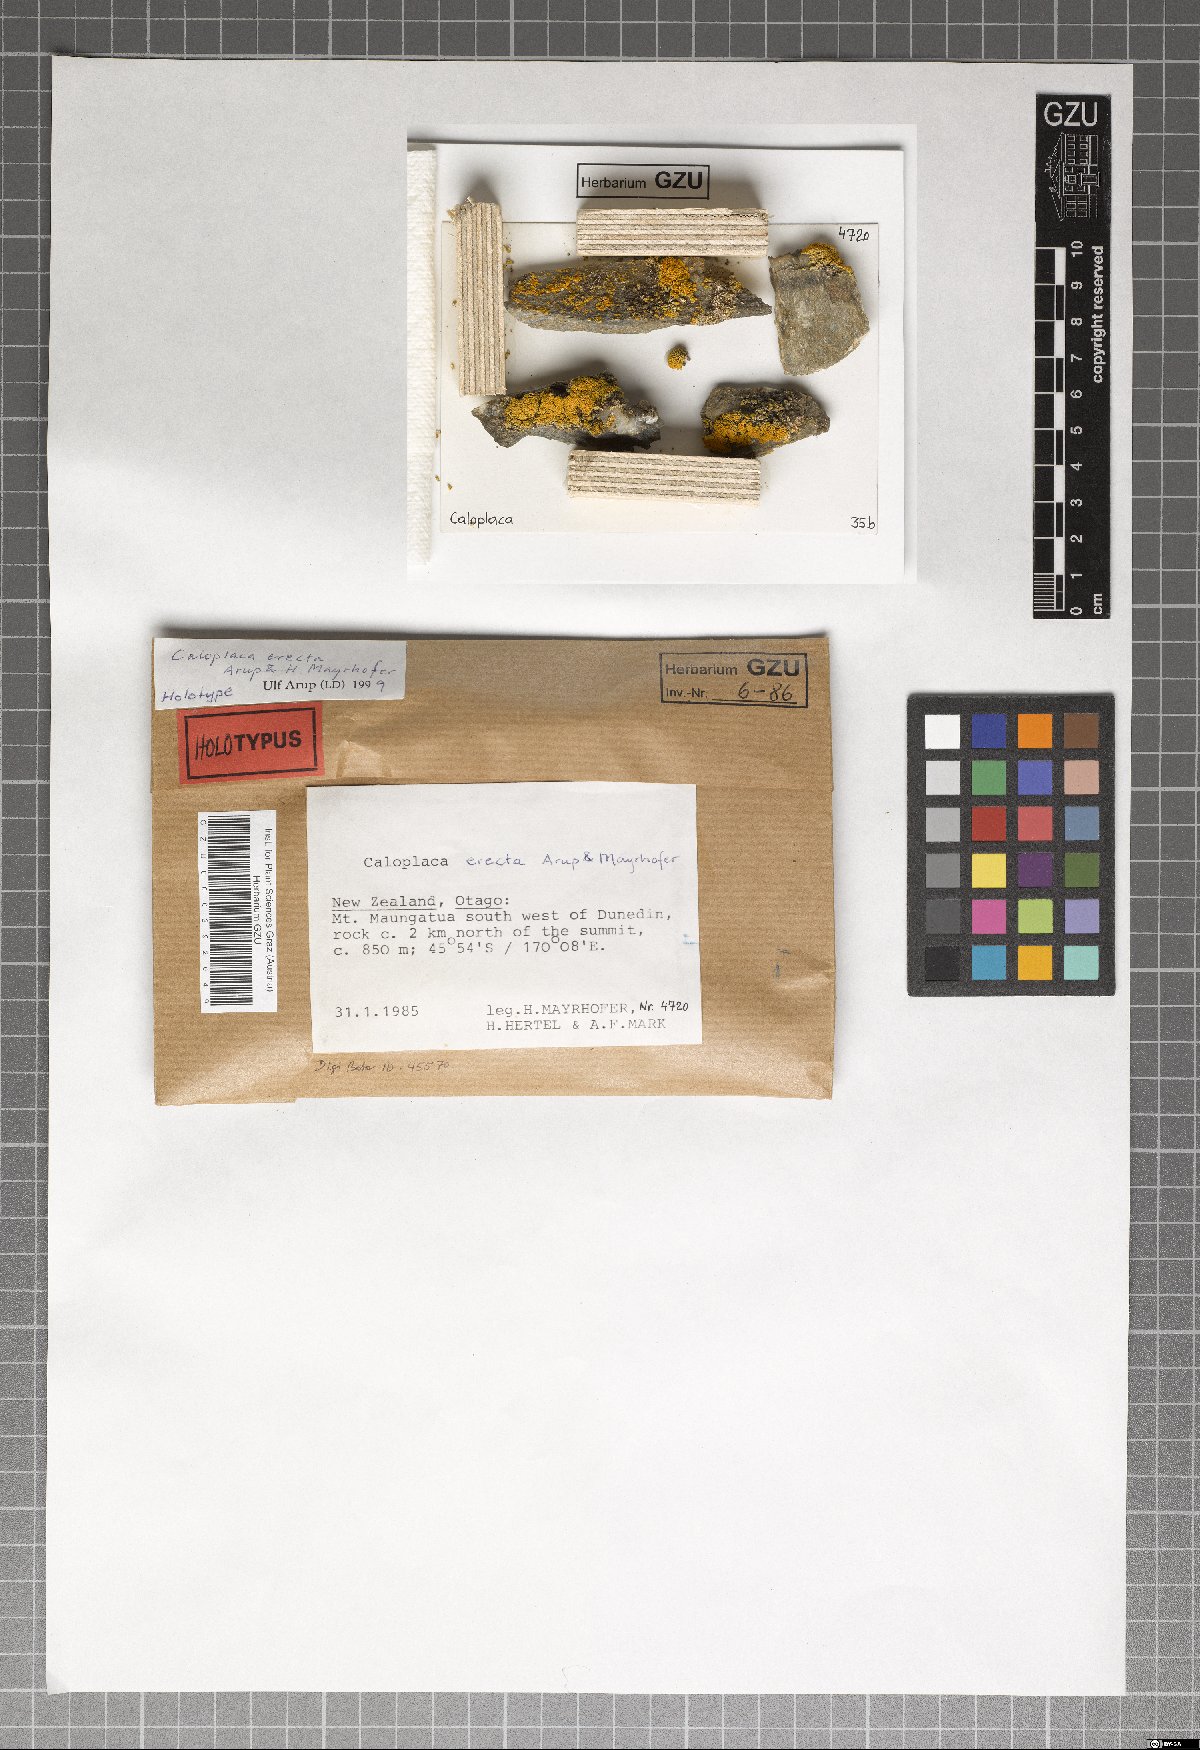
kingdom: Fungi
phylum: Ascomycota
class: Lecanoromycetes
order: Teloschistales
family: Teloschistaceae
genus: Austroplaca
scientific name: Austroplaca erecta
